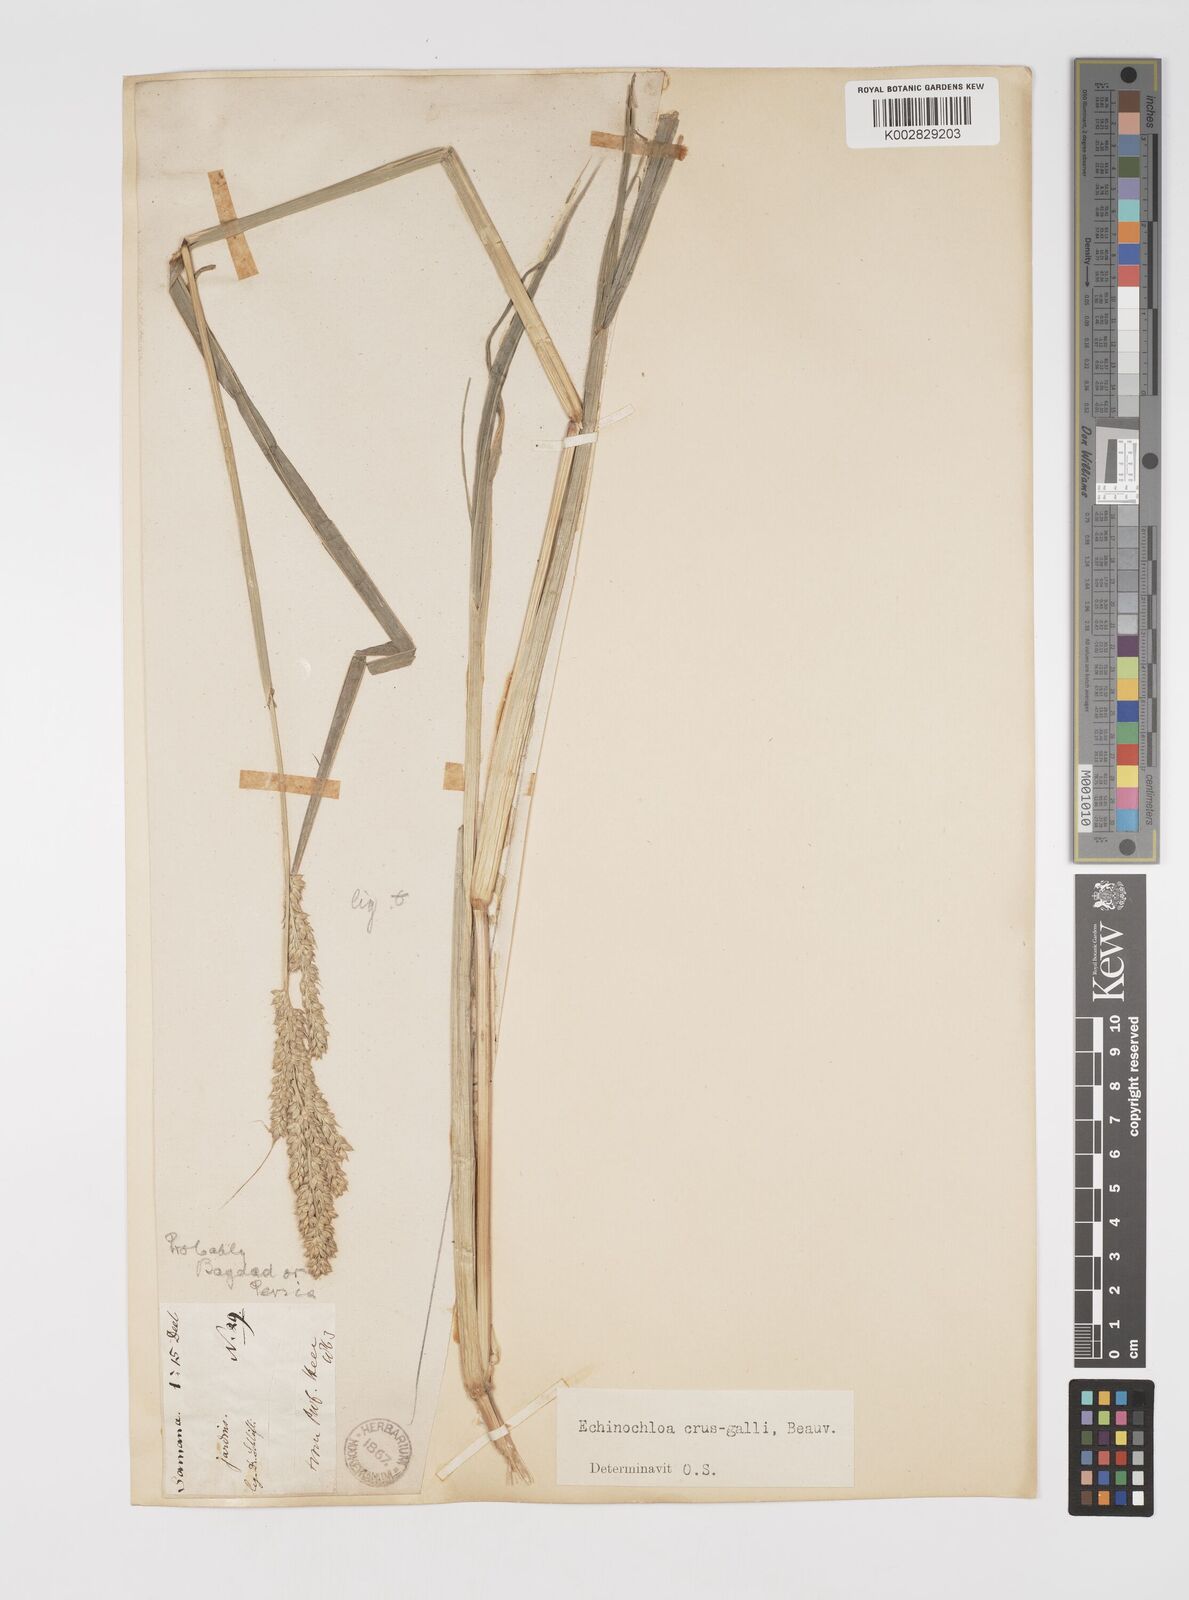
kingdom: Plantae
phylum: Tracheophyta
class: Liliopsida
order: Poales
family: Poaceae
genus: Echinochloa
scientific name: Echinochloa crus-galli
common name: Cockspur
